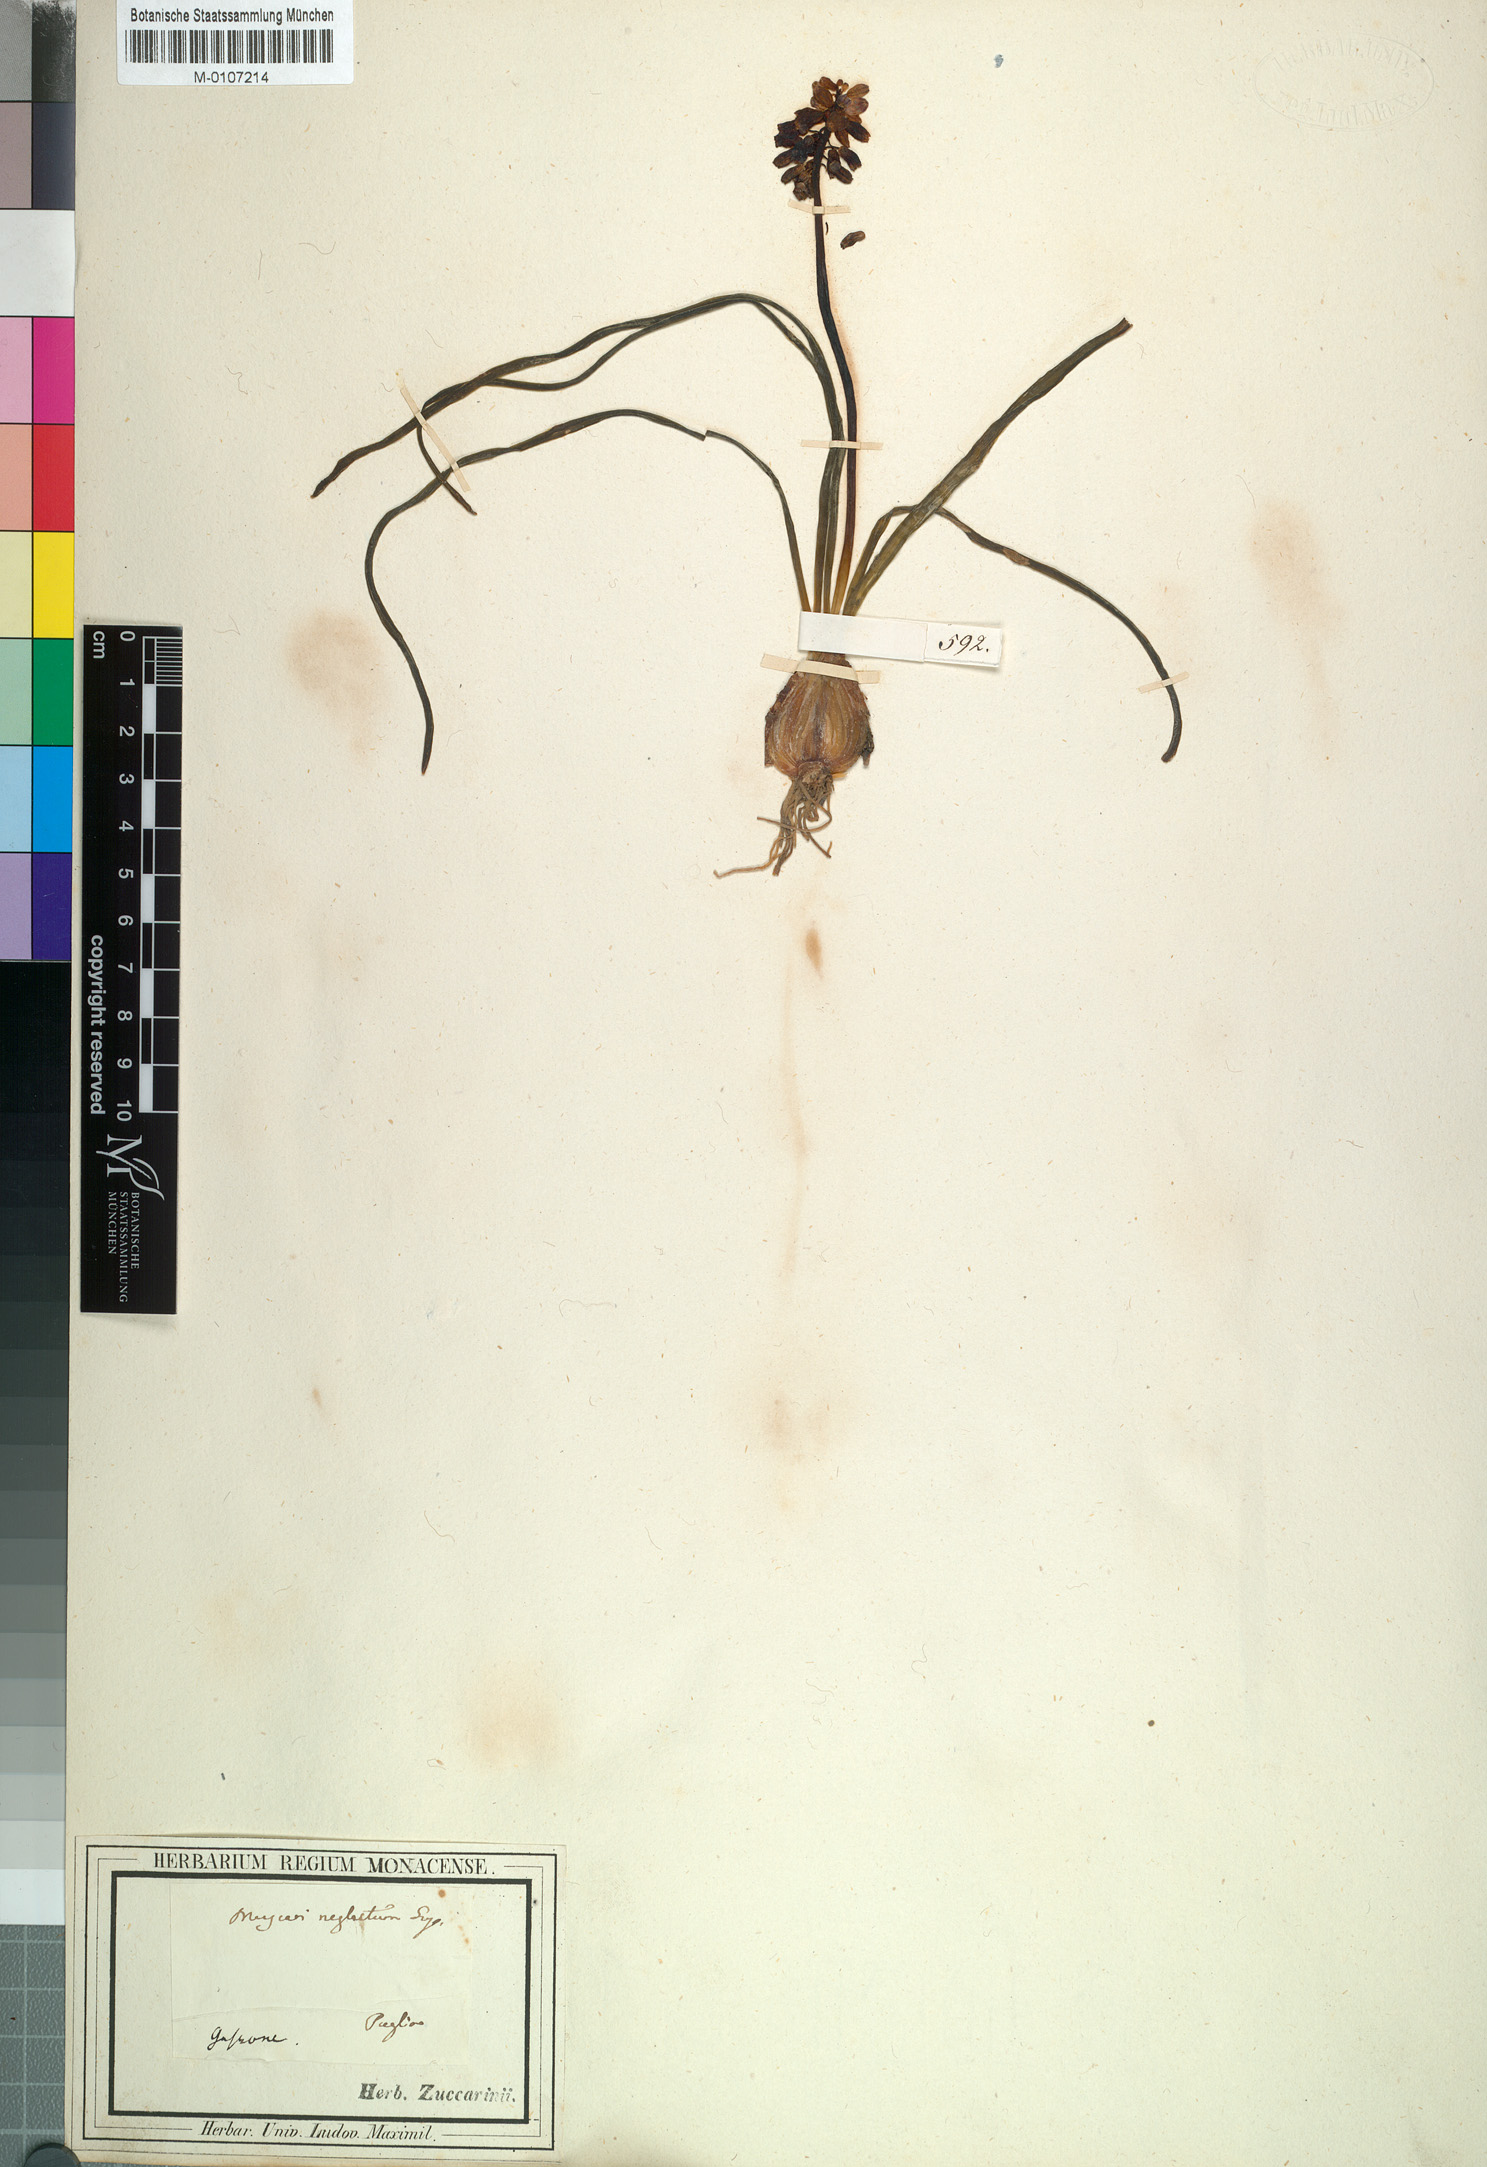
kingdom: Plantae
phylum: Tracheophyta
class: Liliopsida
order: Asparagales
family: Asparagaceae
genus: Muscari
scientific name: Muscari neglectum
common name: Grape-hyacinth
